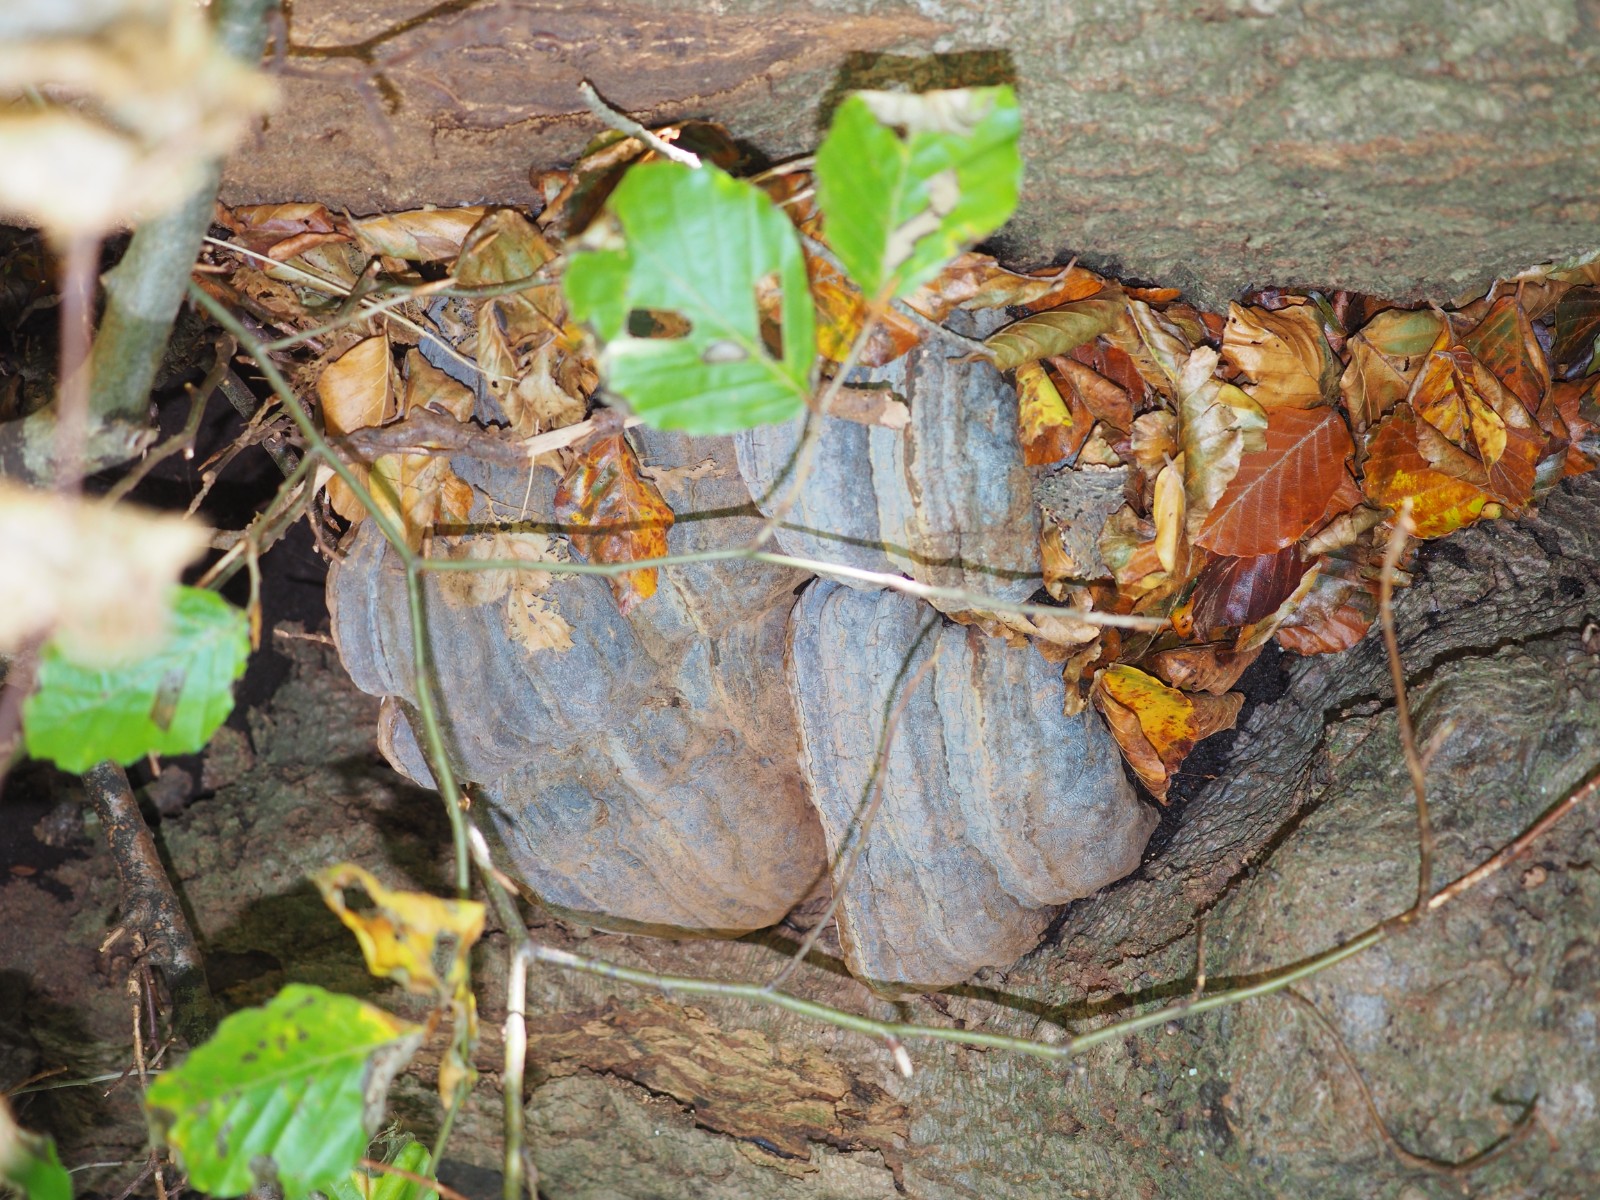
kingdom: Fungi
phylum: Basidiomycota
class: Agaricomycetes
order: Polyporales
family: Polyporaceae
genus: Ganoderma
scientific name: Ganoderma pfeifferi
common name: kobberrød lakporesvamp
